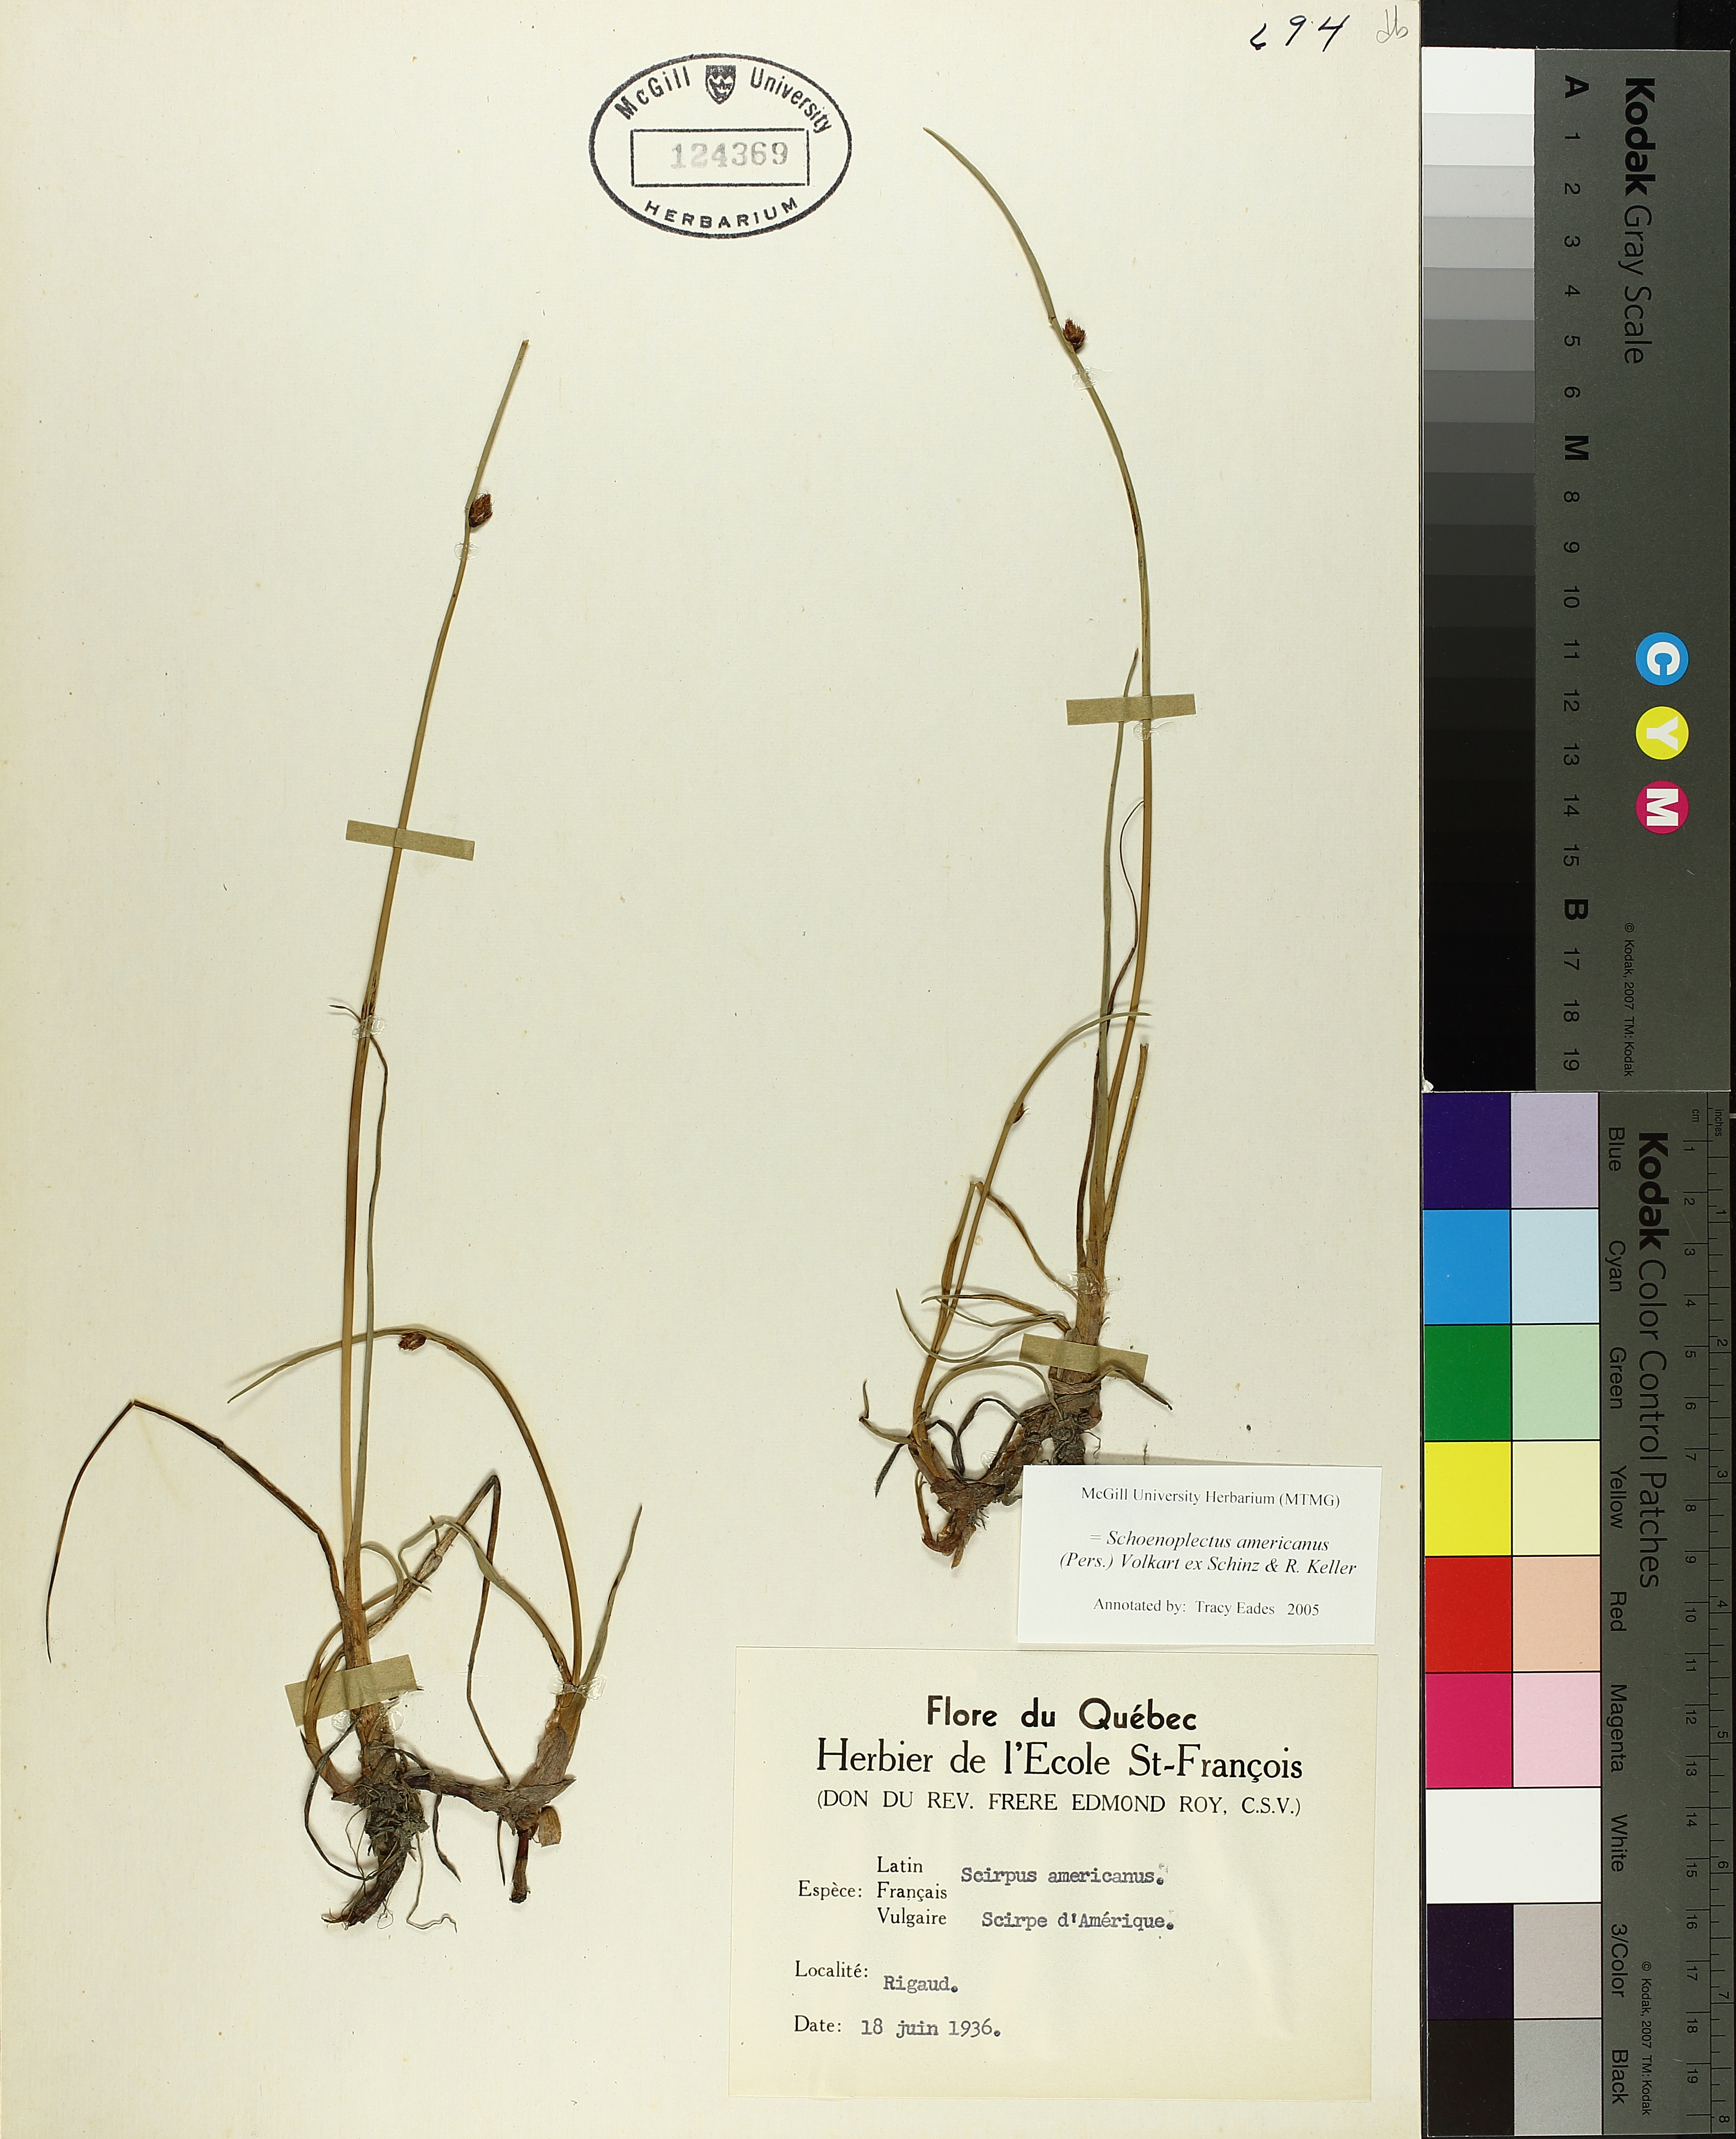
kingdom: Plantae
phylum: Tracheophyta
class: Liliopsida
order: Poales
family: Cyperaceae
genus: Schoenoplectus
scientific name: Schoenoplectus americanus
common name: American three-square bulrush
